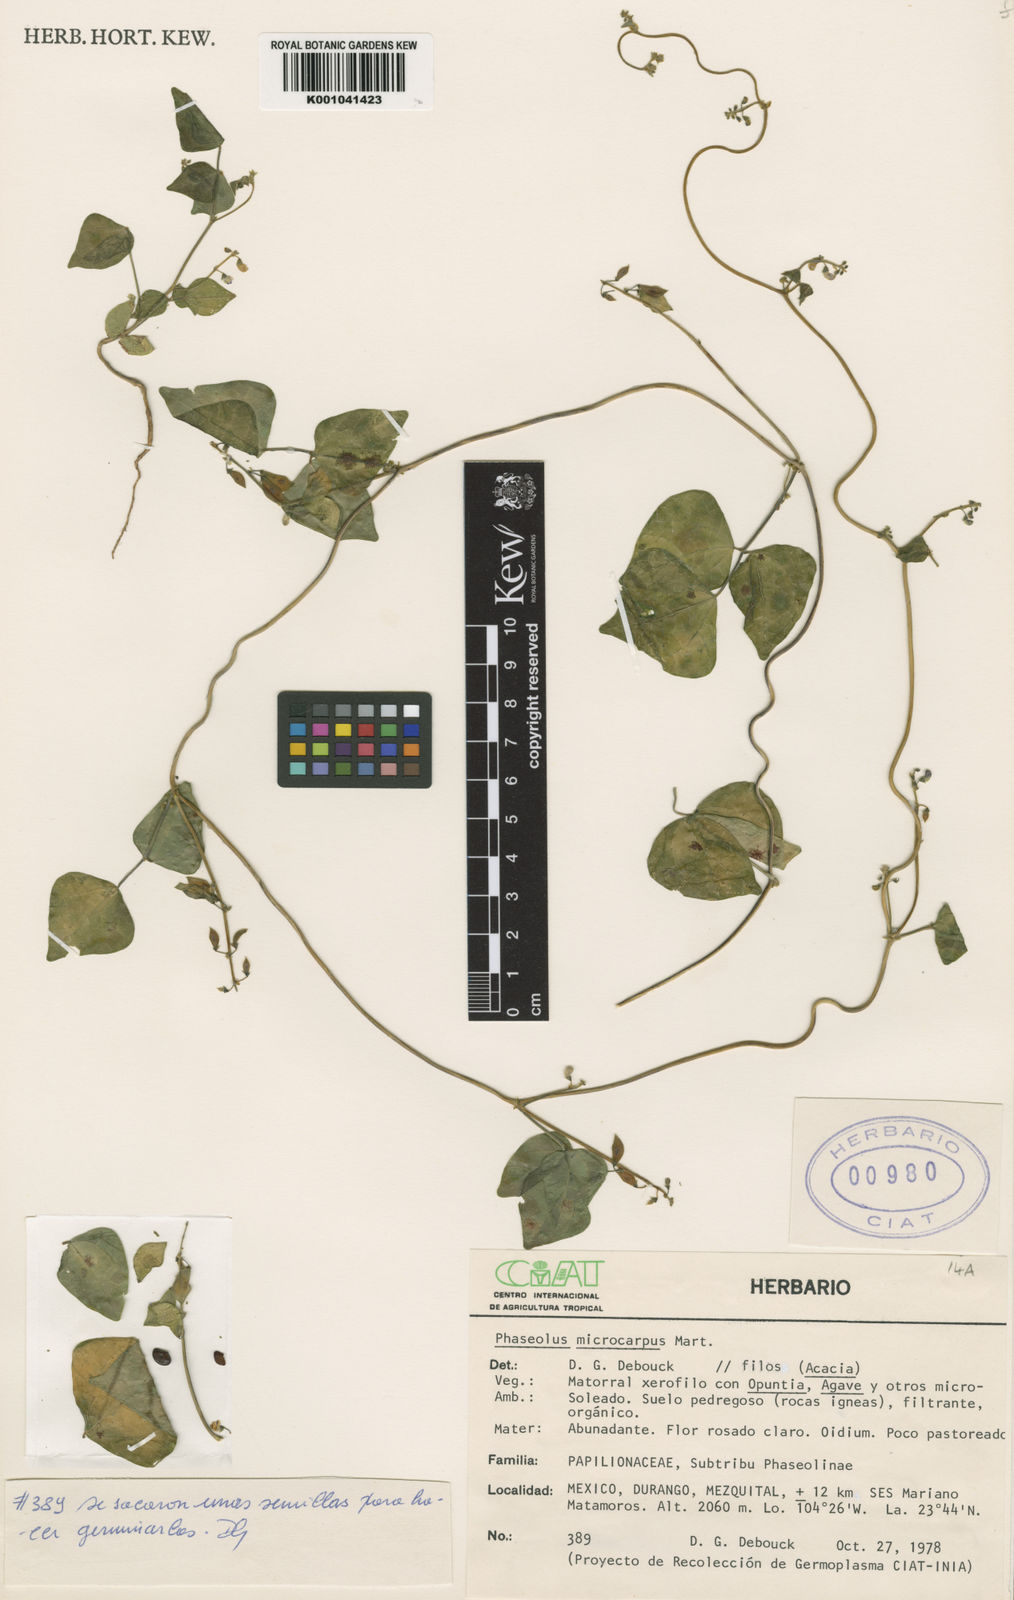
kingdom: Plantae
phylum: Tracheophyta
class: Magnoliopsida
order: Fabales
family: Fabaceae
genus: Phaseolus
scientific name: Phaseolus microcarpus
